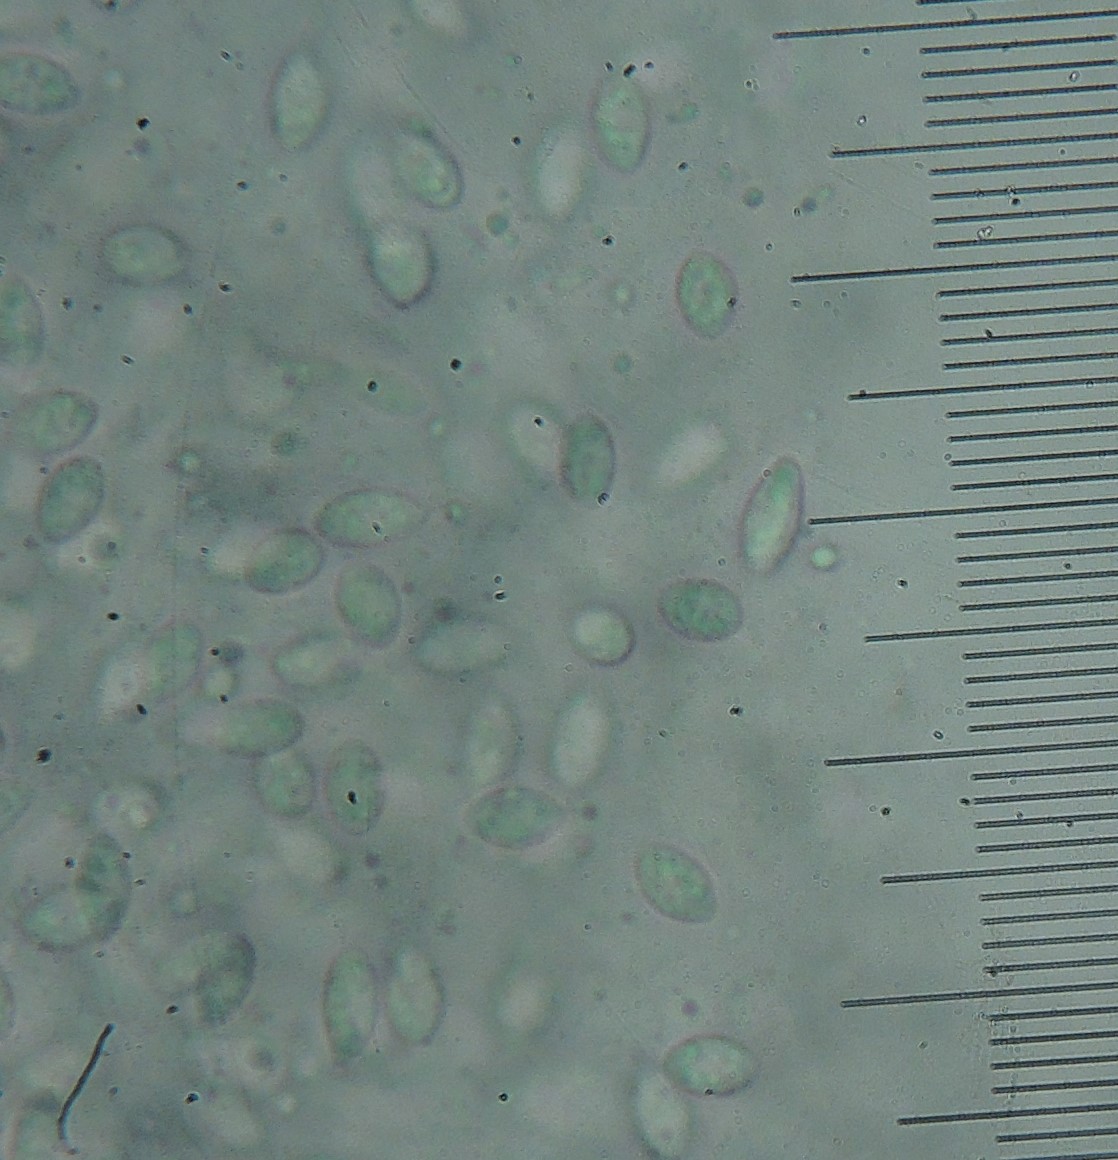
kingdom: Fungi
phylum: Ascomycota
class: Sordariomycetes
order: Diaporthales
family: Diaporthaceae
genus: Diaporthe
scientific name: Diaporthe stictica
